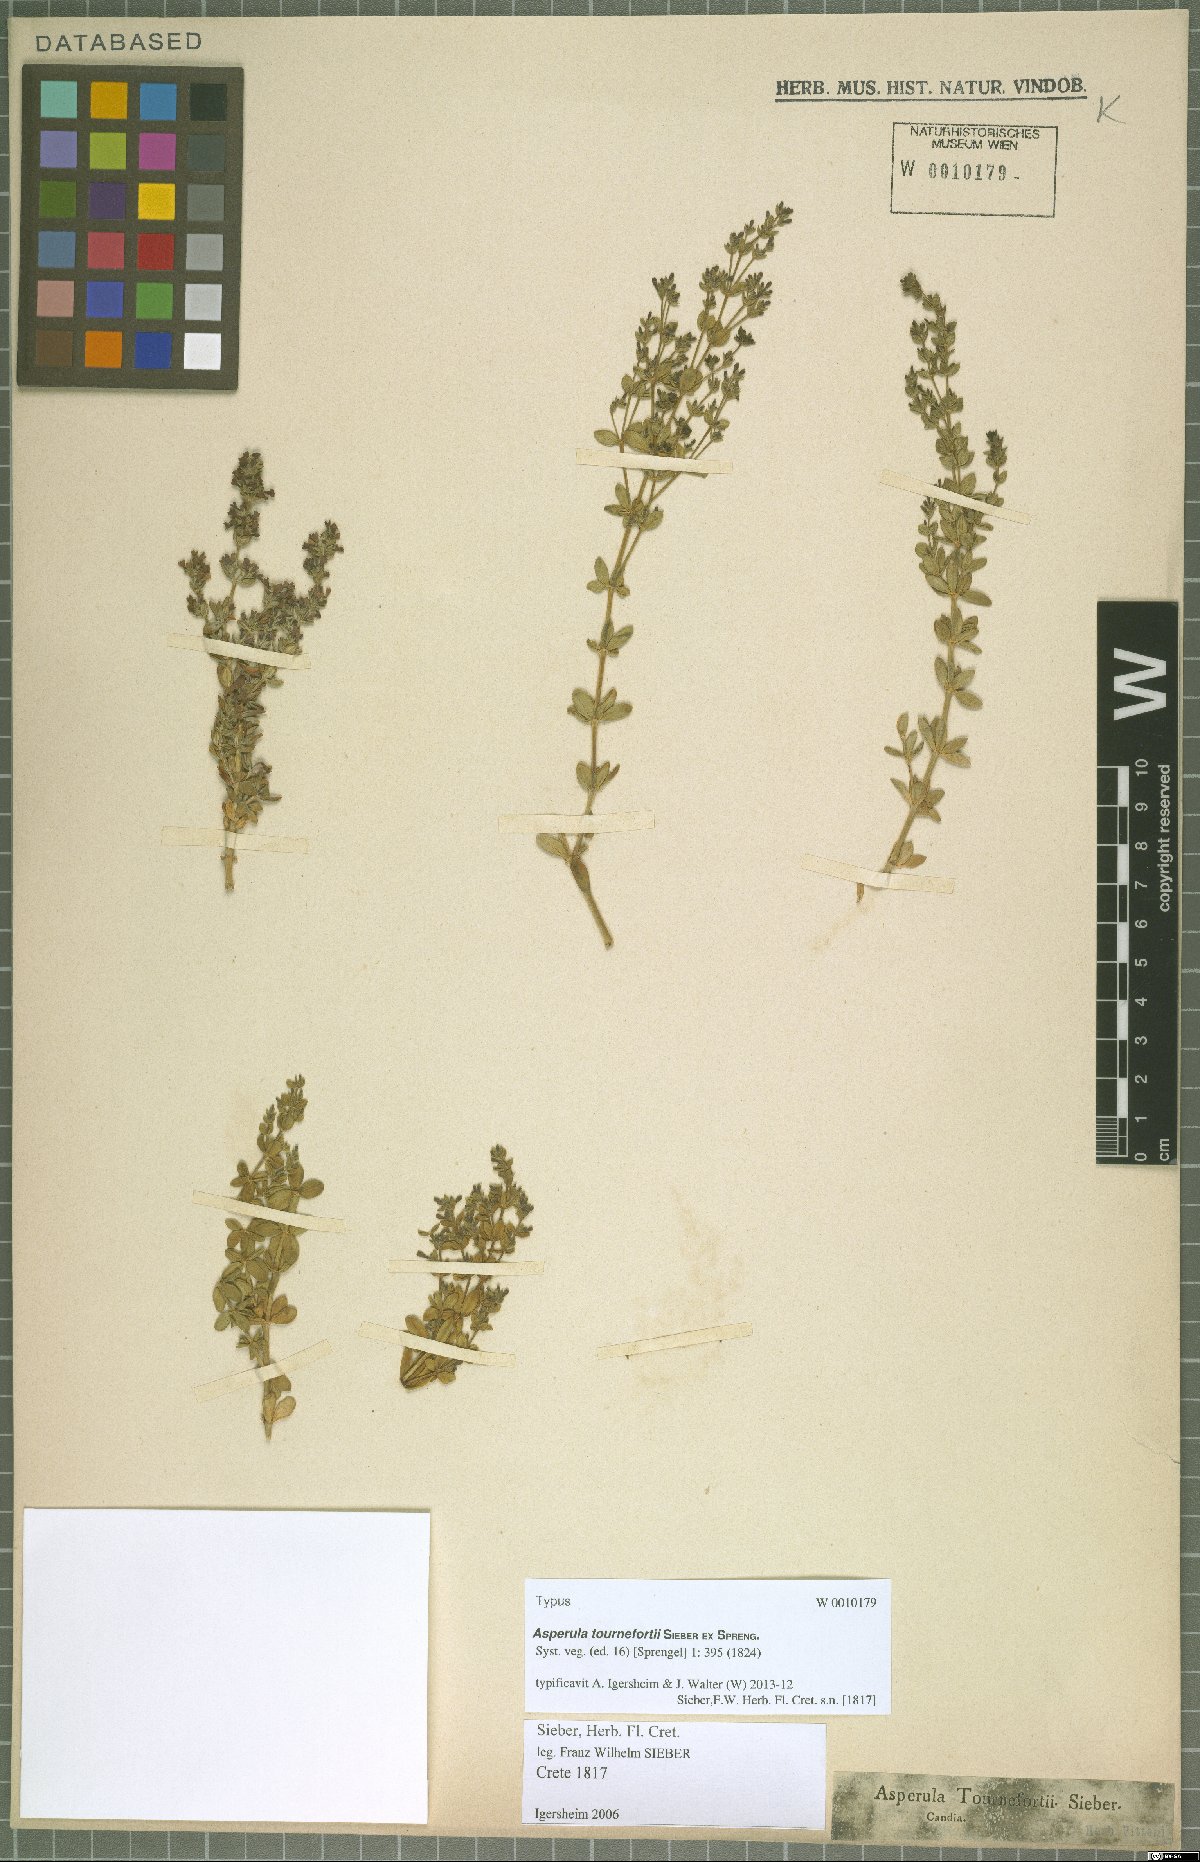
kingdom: Plantae
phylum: Tracheophyta
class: Magnoliopsida
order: Gentianales
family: Rubiaceae
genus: Asperula
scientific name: Asperula tournefortii
